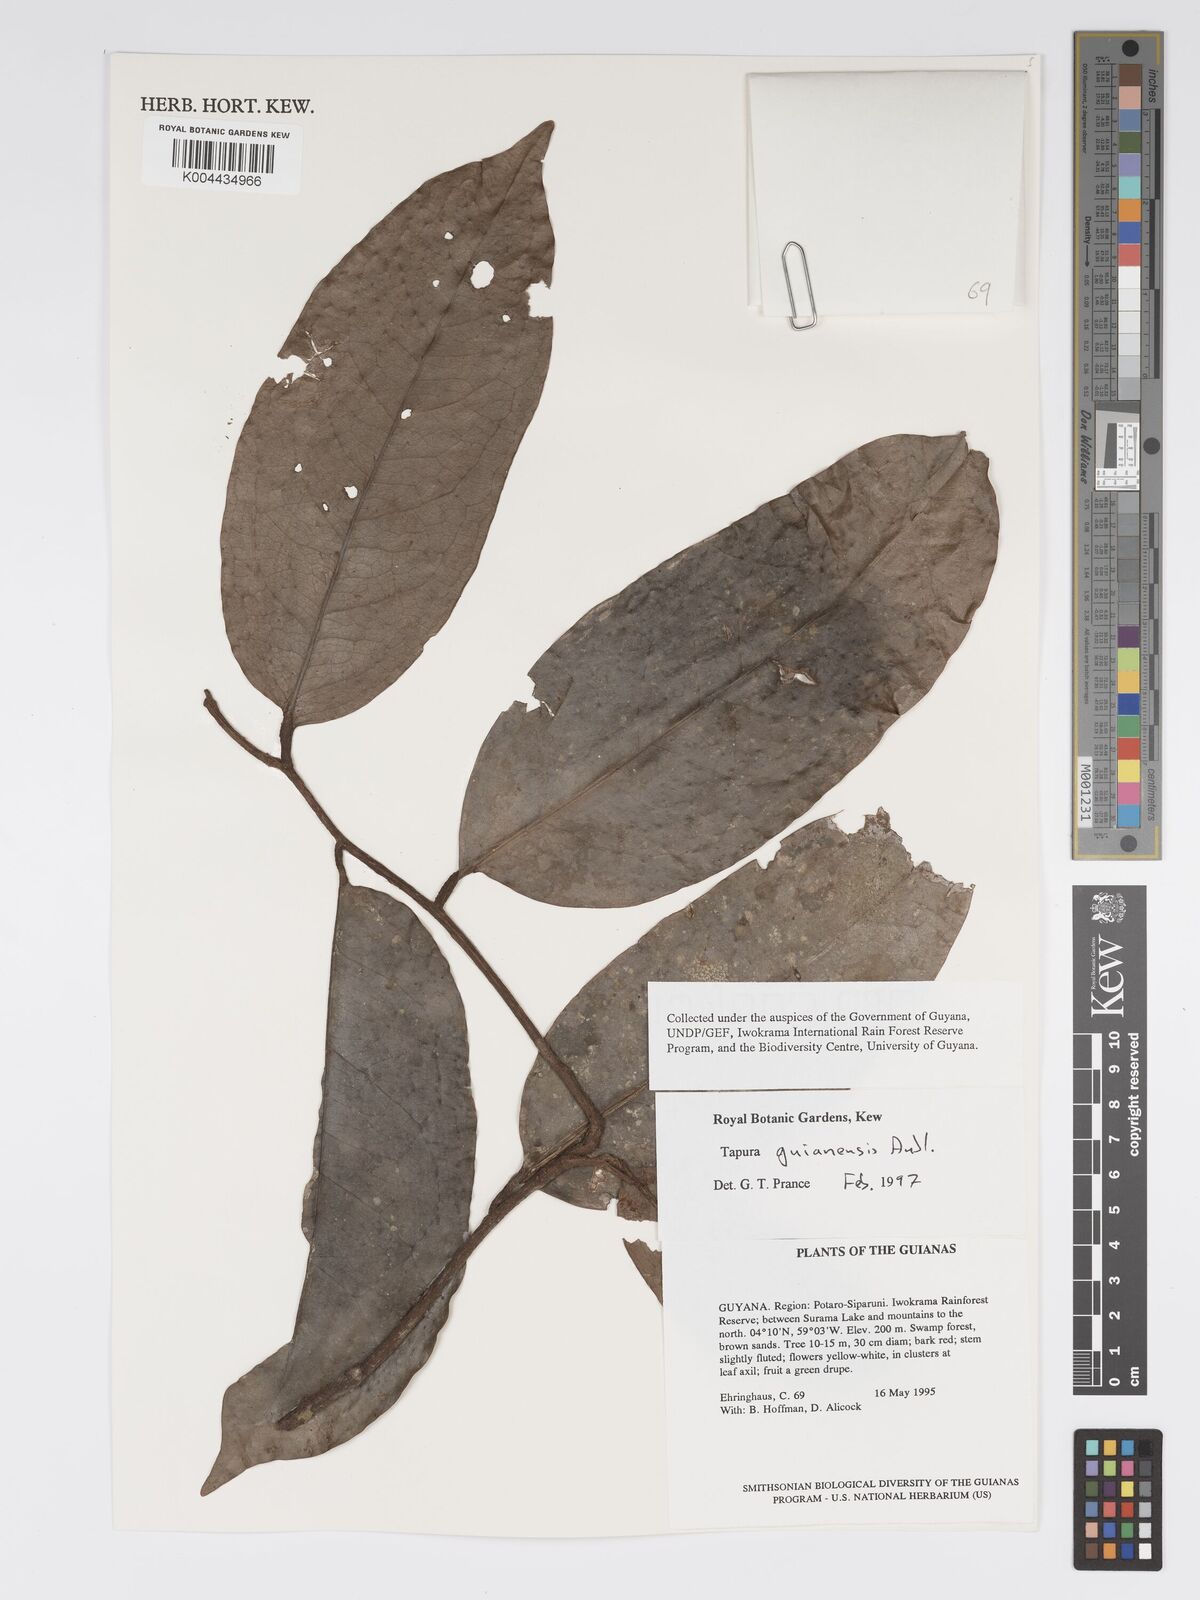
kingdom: Plantae
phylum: Tracheophyta
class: Magnoliopsida
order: Malpighiales
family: Dichapetalaceae
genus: Tapura
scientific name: Tapura guianensis
